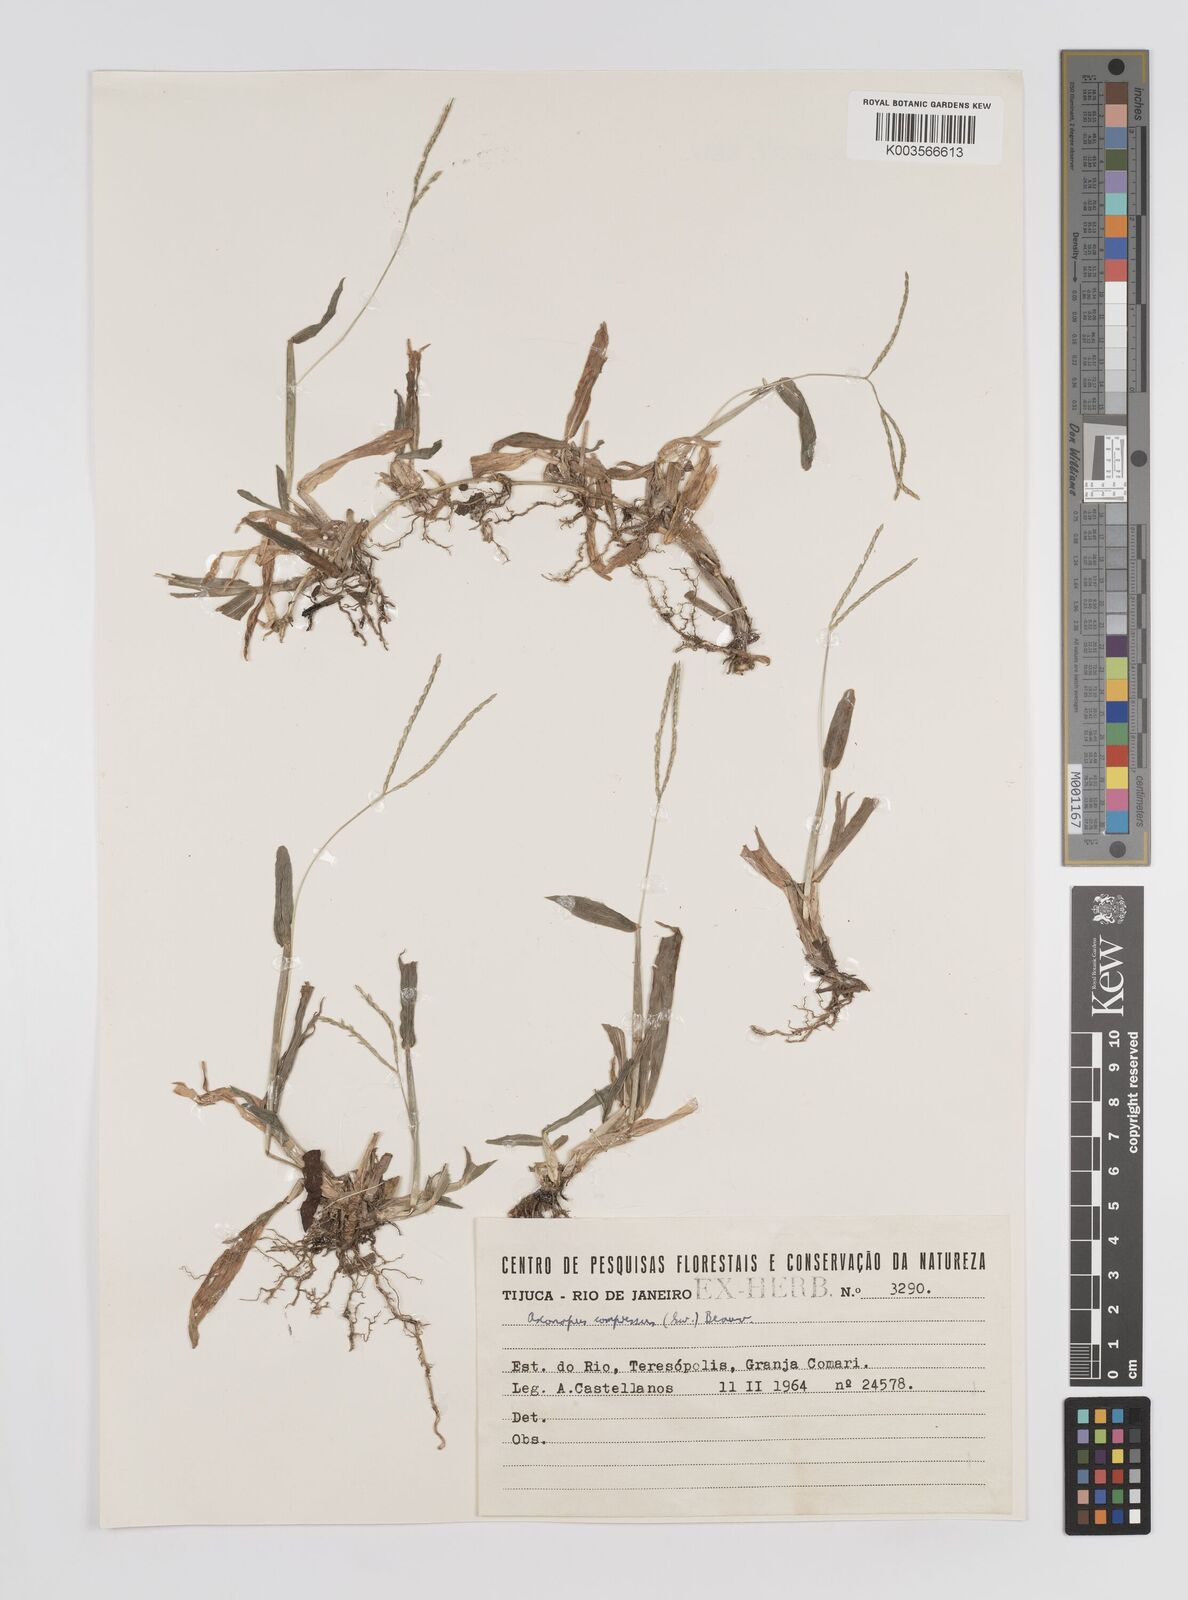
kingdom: Plantae
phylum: Tracheophyta
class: Liliopsida
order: Poales
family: Poaceae
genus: Axonopus
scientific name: Axonopus compressus
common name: American carpet grass
